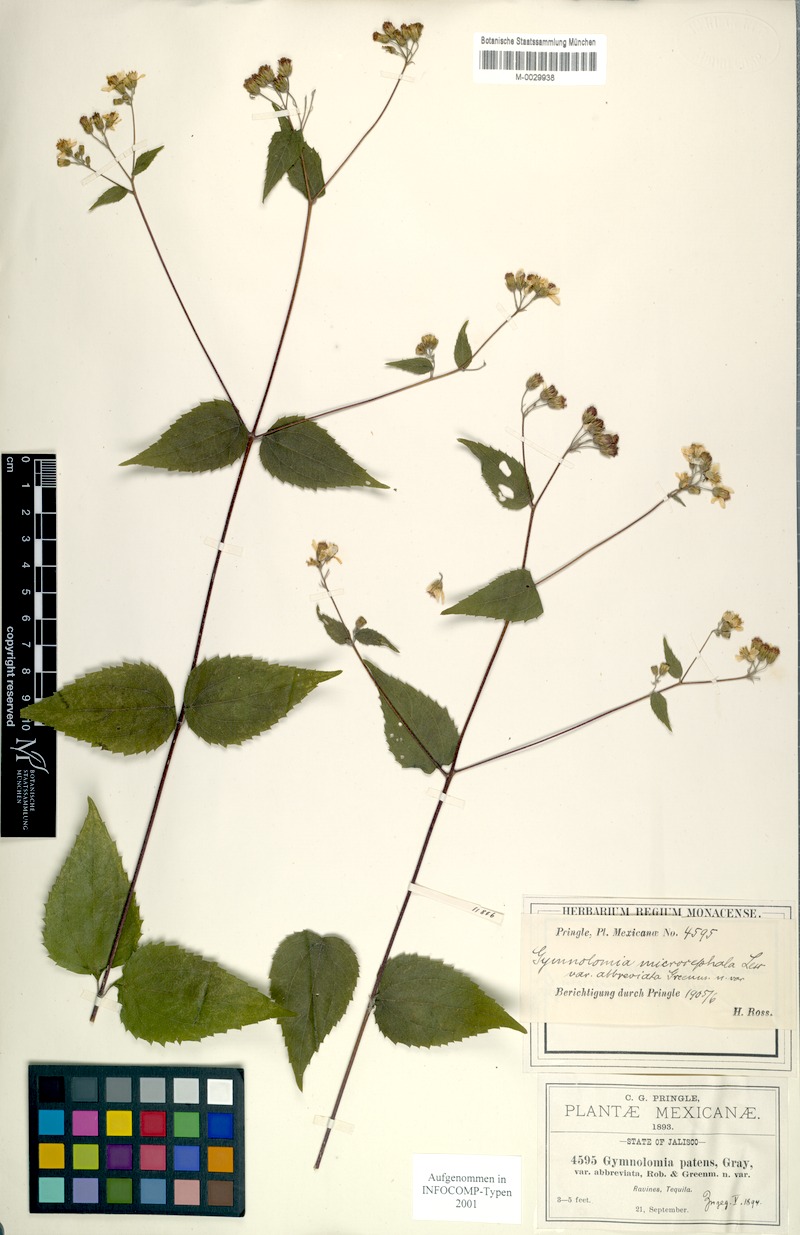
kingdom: Plantae
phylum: Tracheophyta
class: Magnoliopsida
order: Asterales
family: Asteraceae
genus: Hymenostephium
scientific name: Hymenostephium cordatum
